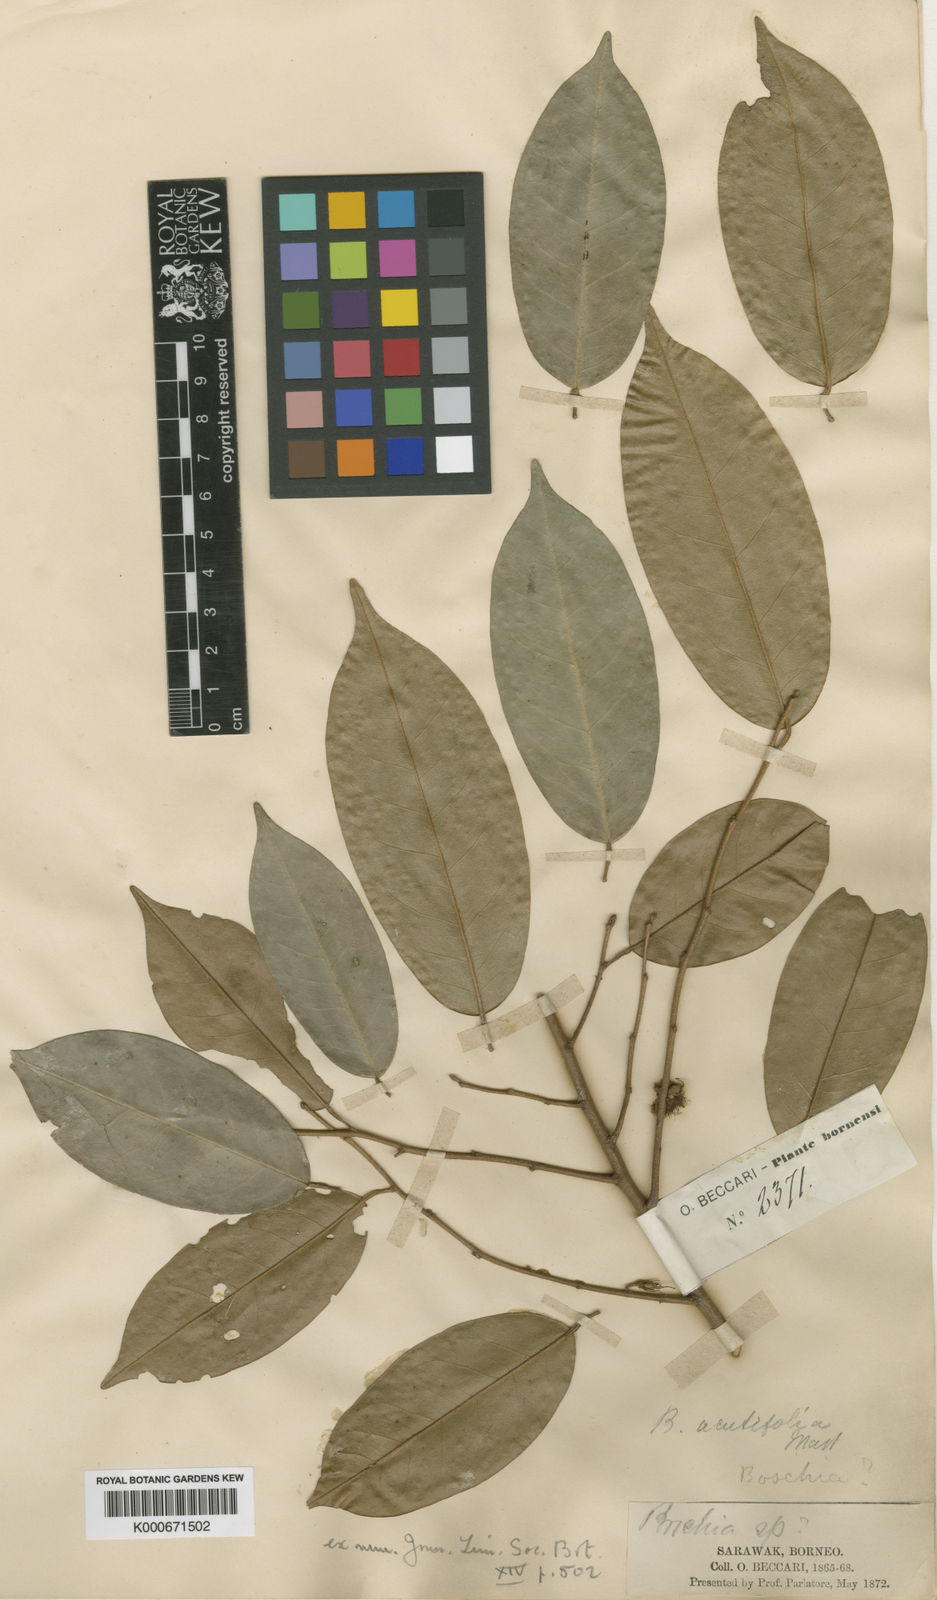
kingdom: Plantae
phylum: Tracheophyta
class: Magnoliopsida
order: Malvales
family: Malvaceae
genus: Boschia
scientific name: Boschia griffithii
